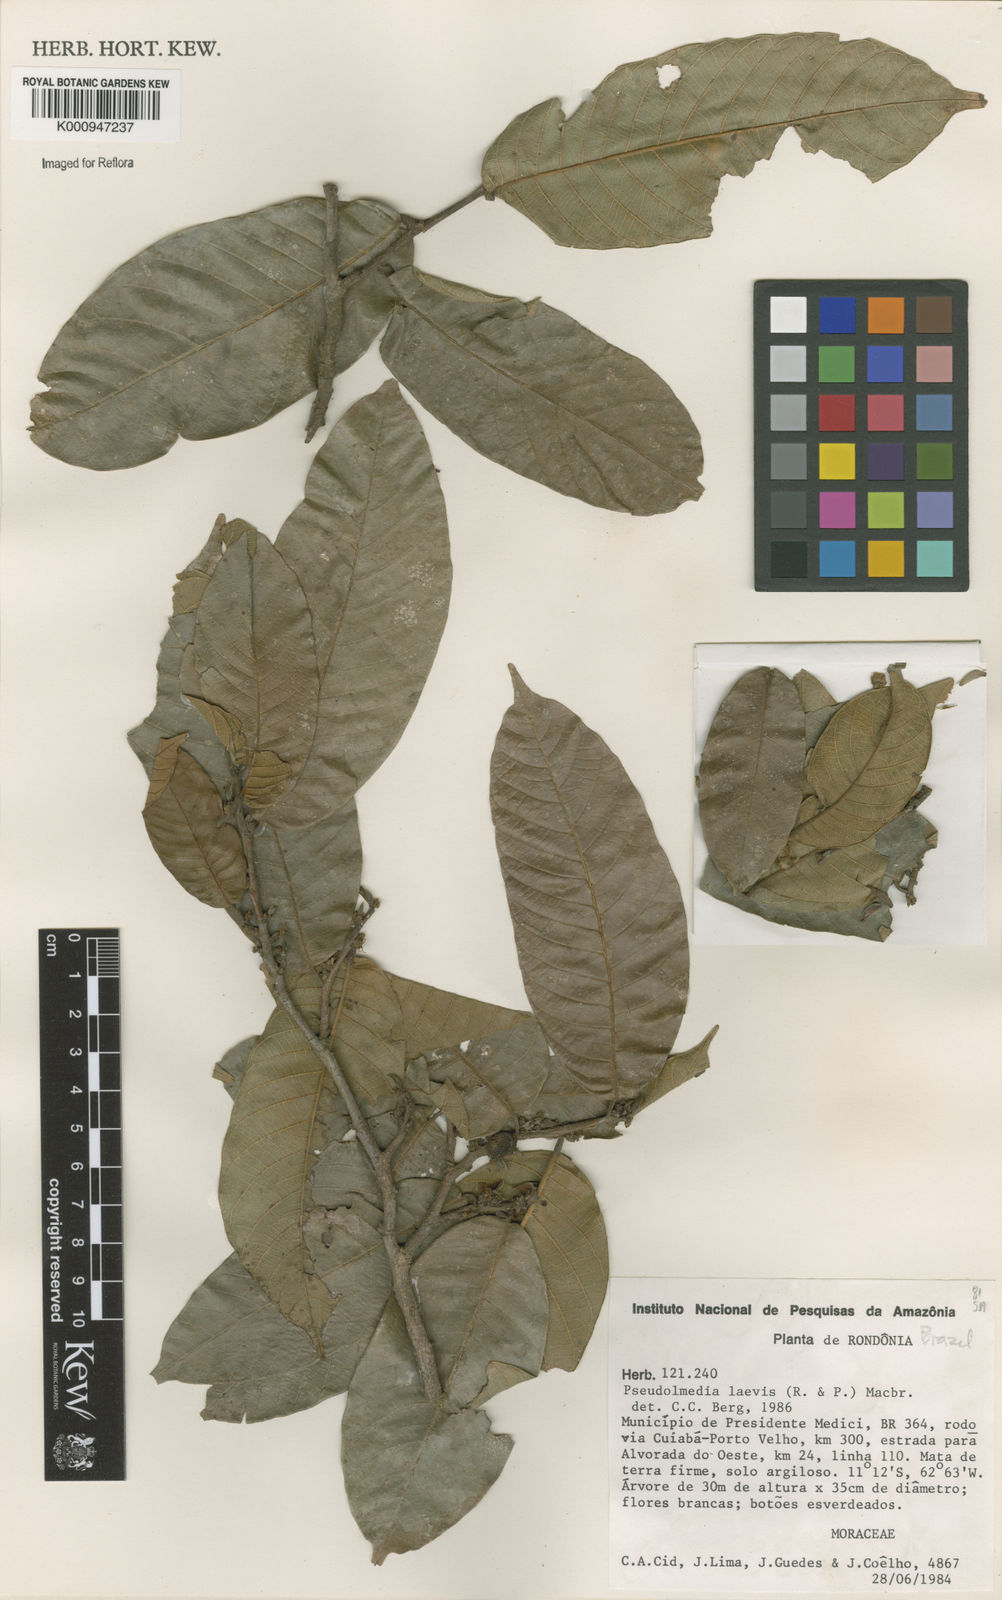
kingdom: Plantae
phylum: Tracheophyta
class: Magnoliopsida
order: Rosales
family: Moraceae
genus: Pseudolmedia
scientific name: Pseudolmedia laevis
